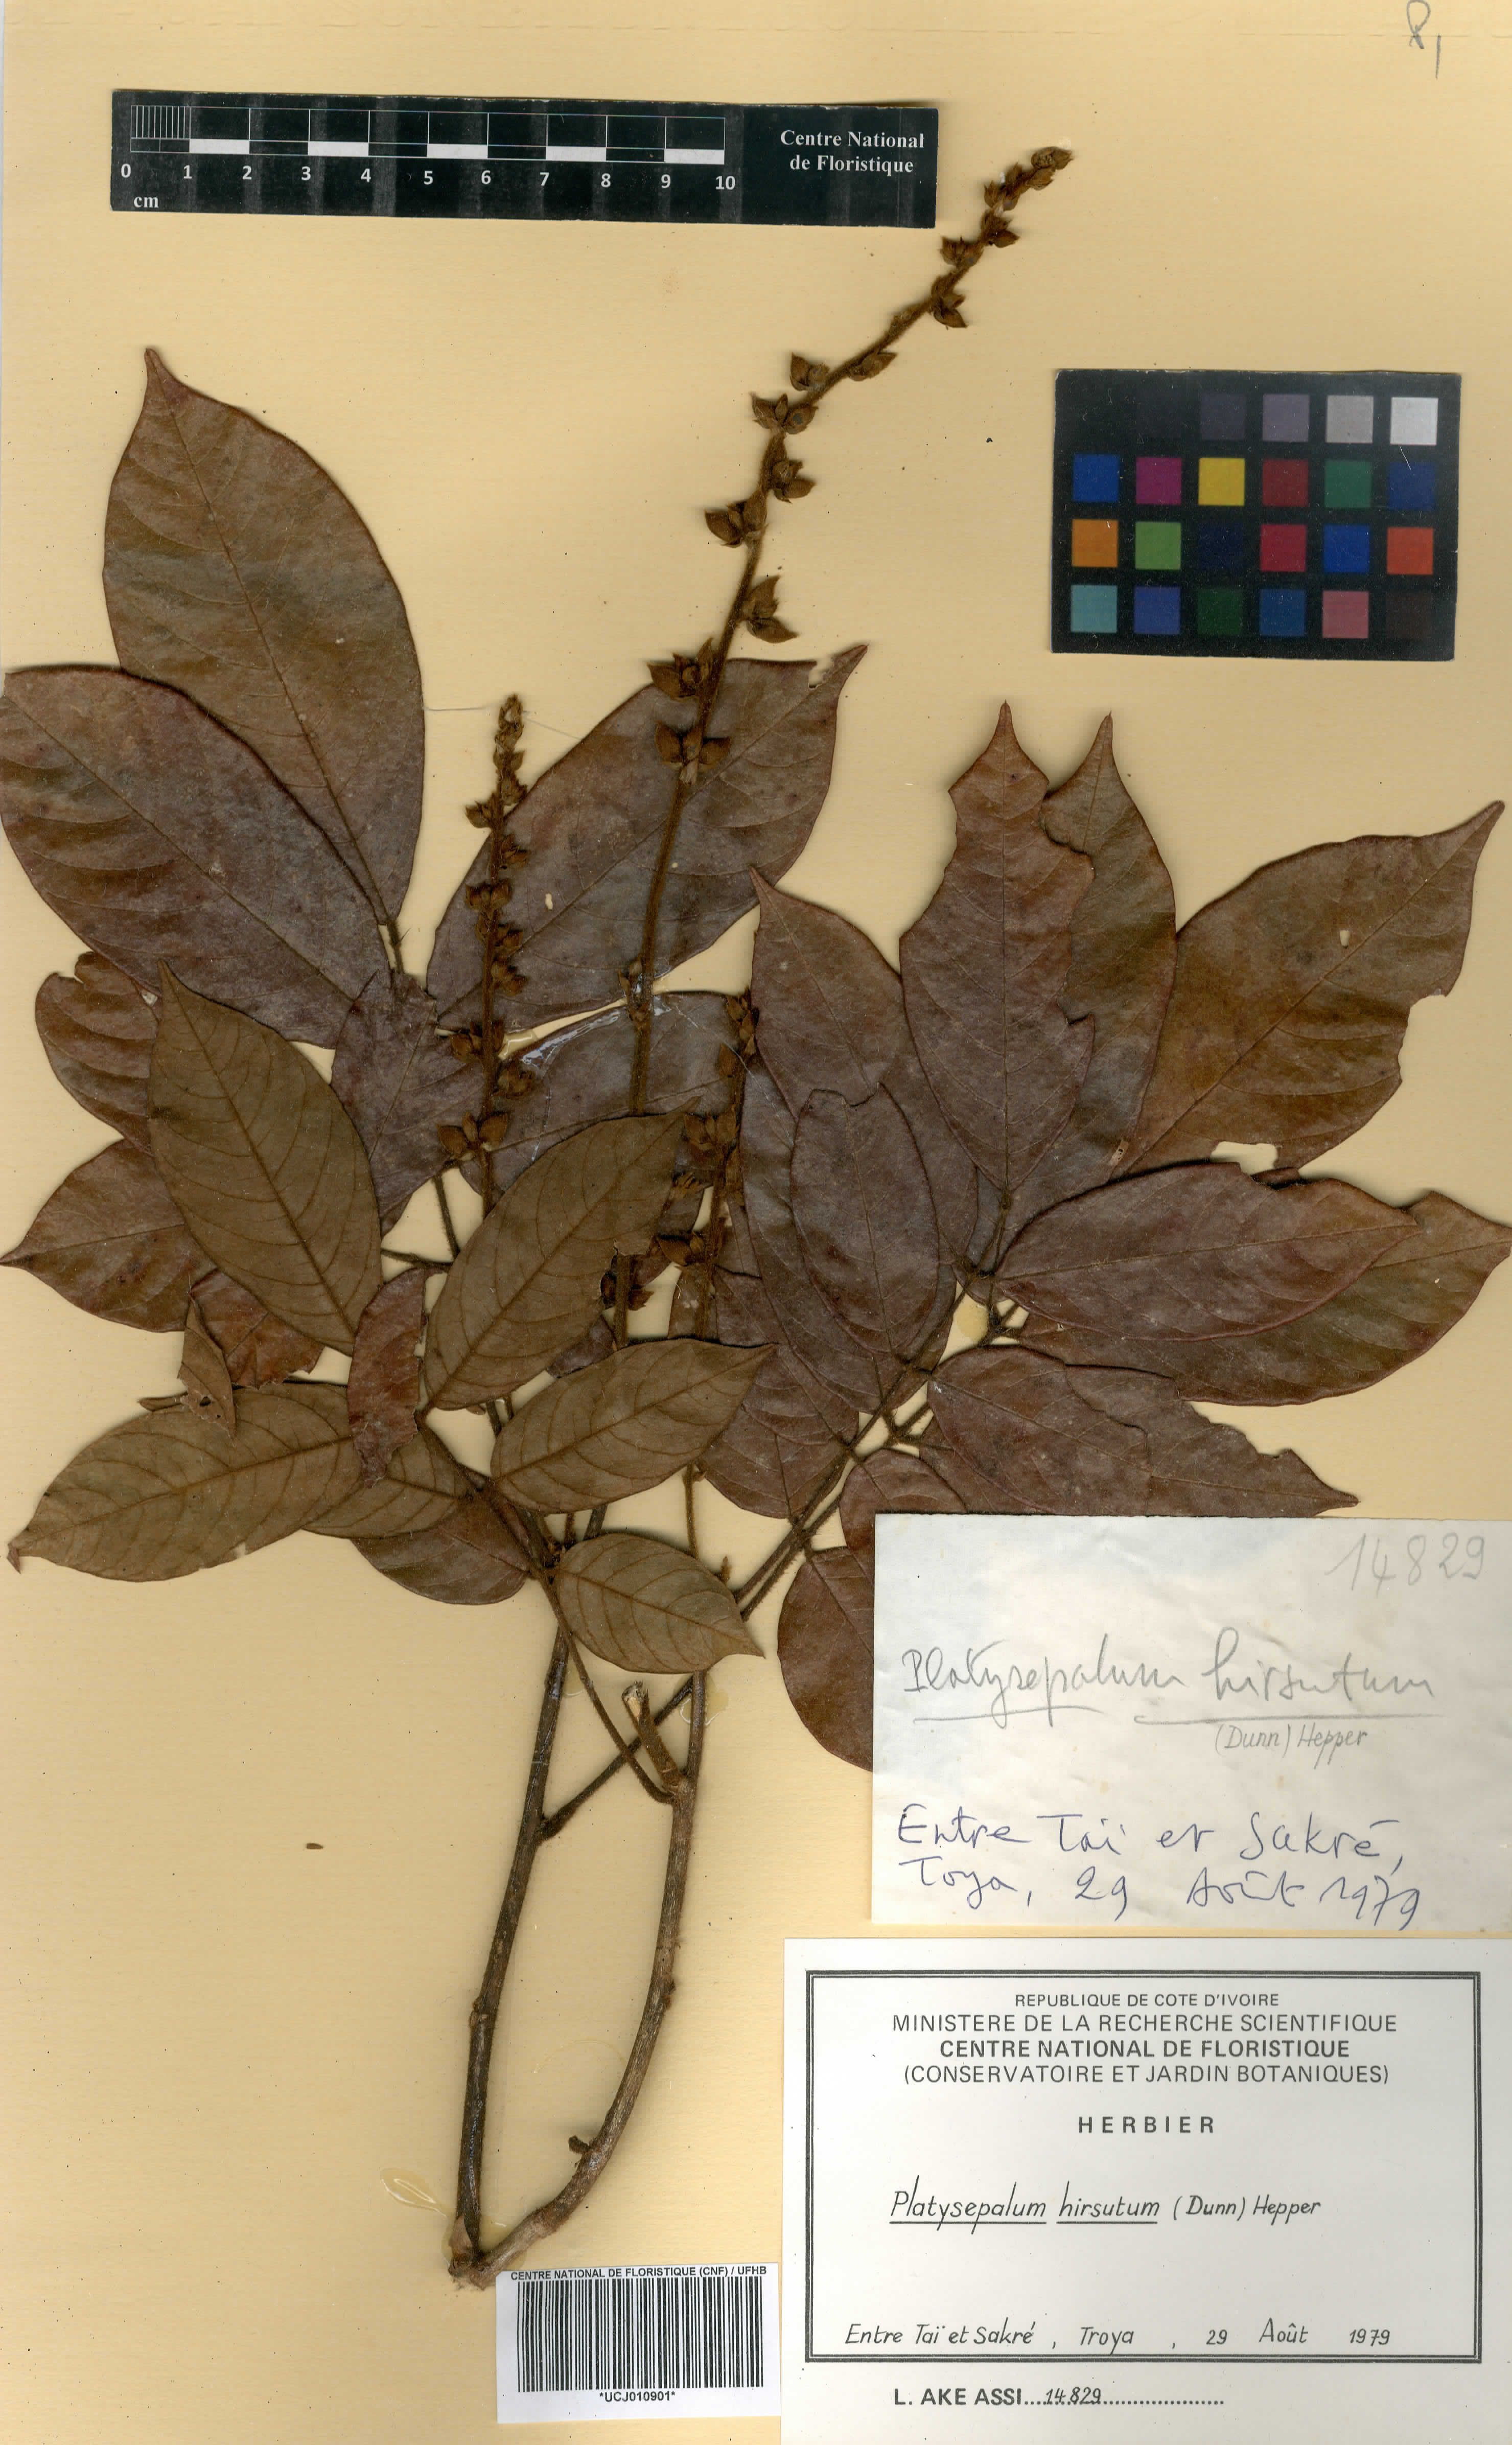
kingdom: Plantae
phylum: Tracheophyta
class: Magnoliopsida
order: Fabales
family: Fabaceae
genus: Platysepalum
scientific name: Platysepalum hirsutum
